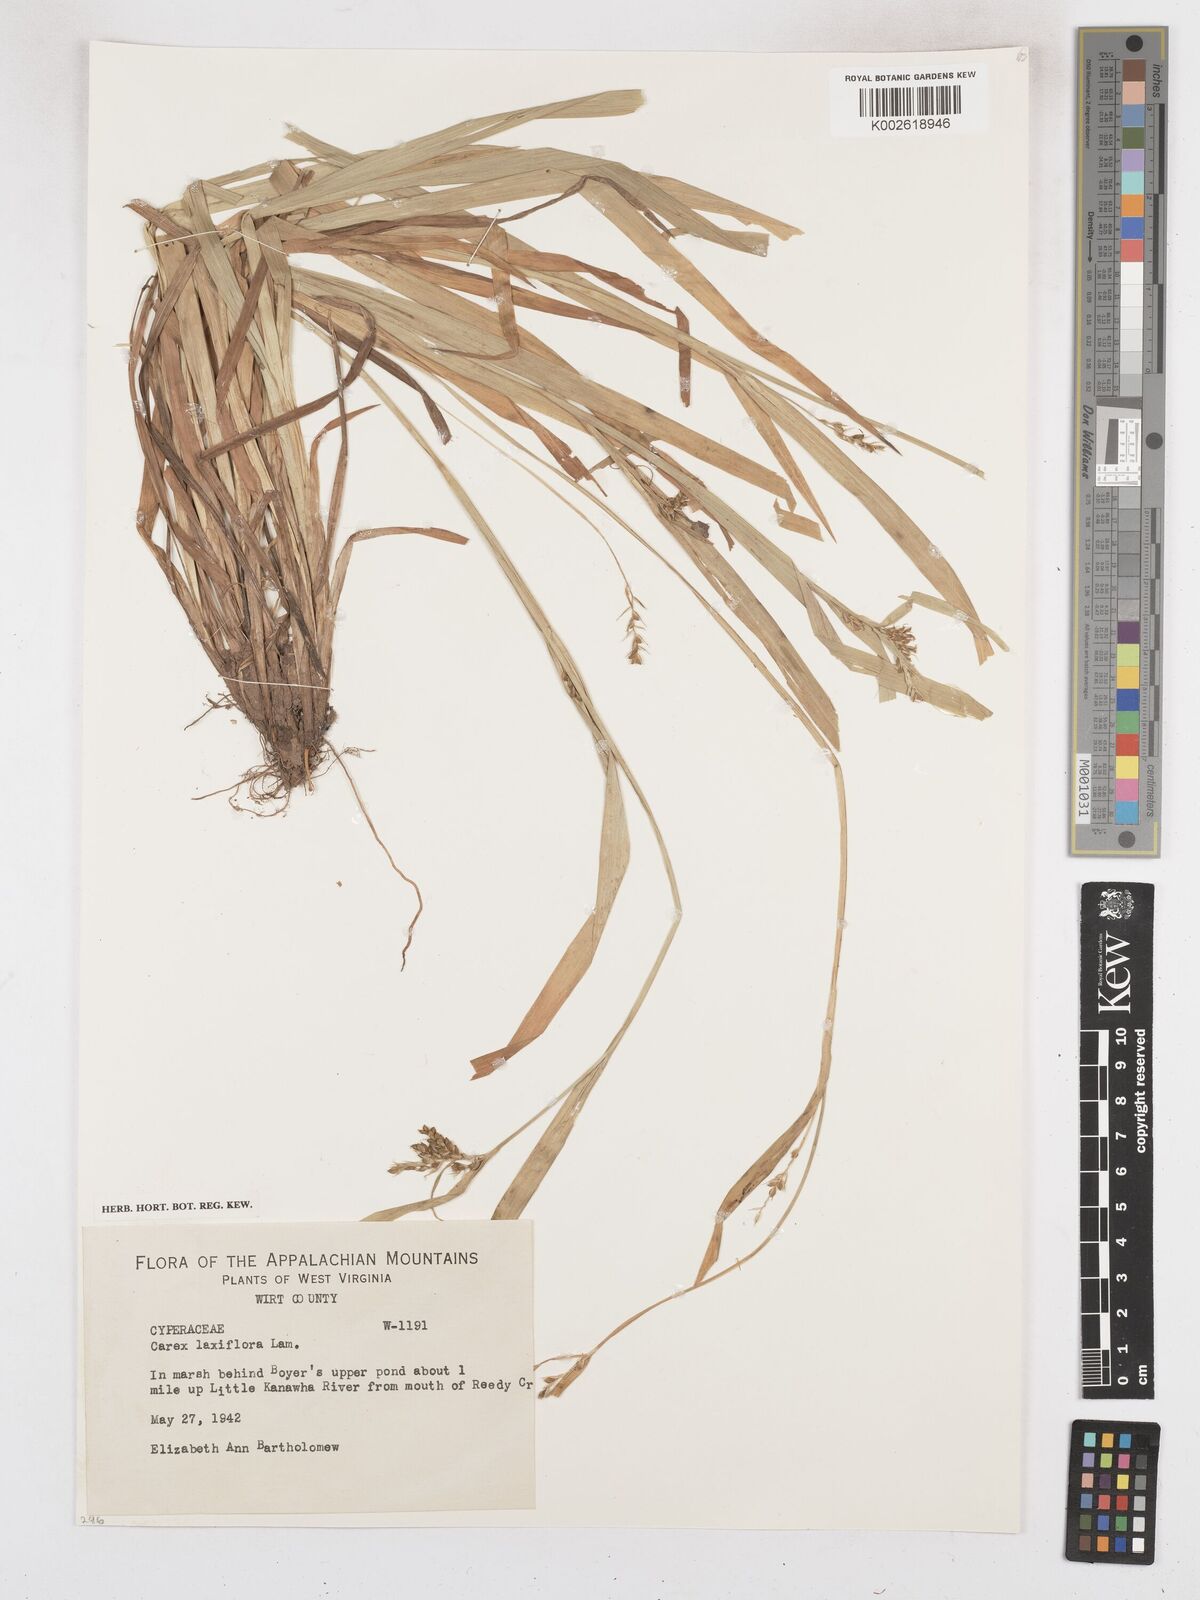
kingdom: Plantae
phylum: Tracheophyta
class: Liliopsida
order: Poales
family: Cyperaceae
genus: Carex
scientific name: Carex laxiflora
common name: Beech wood sedge
